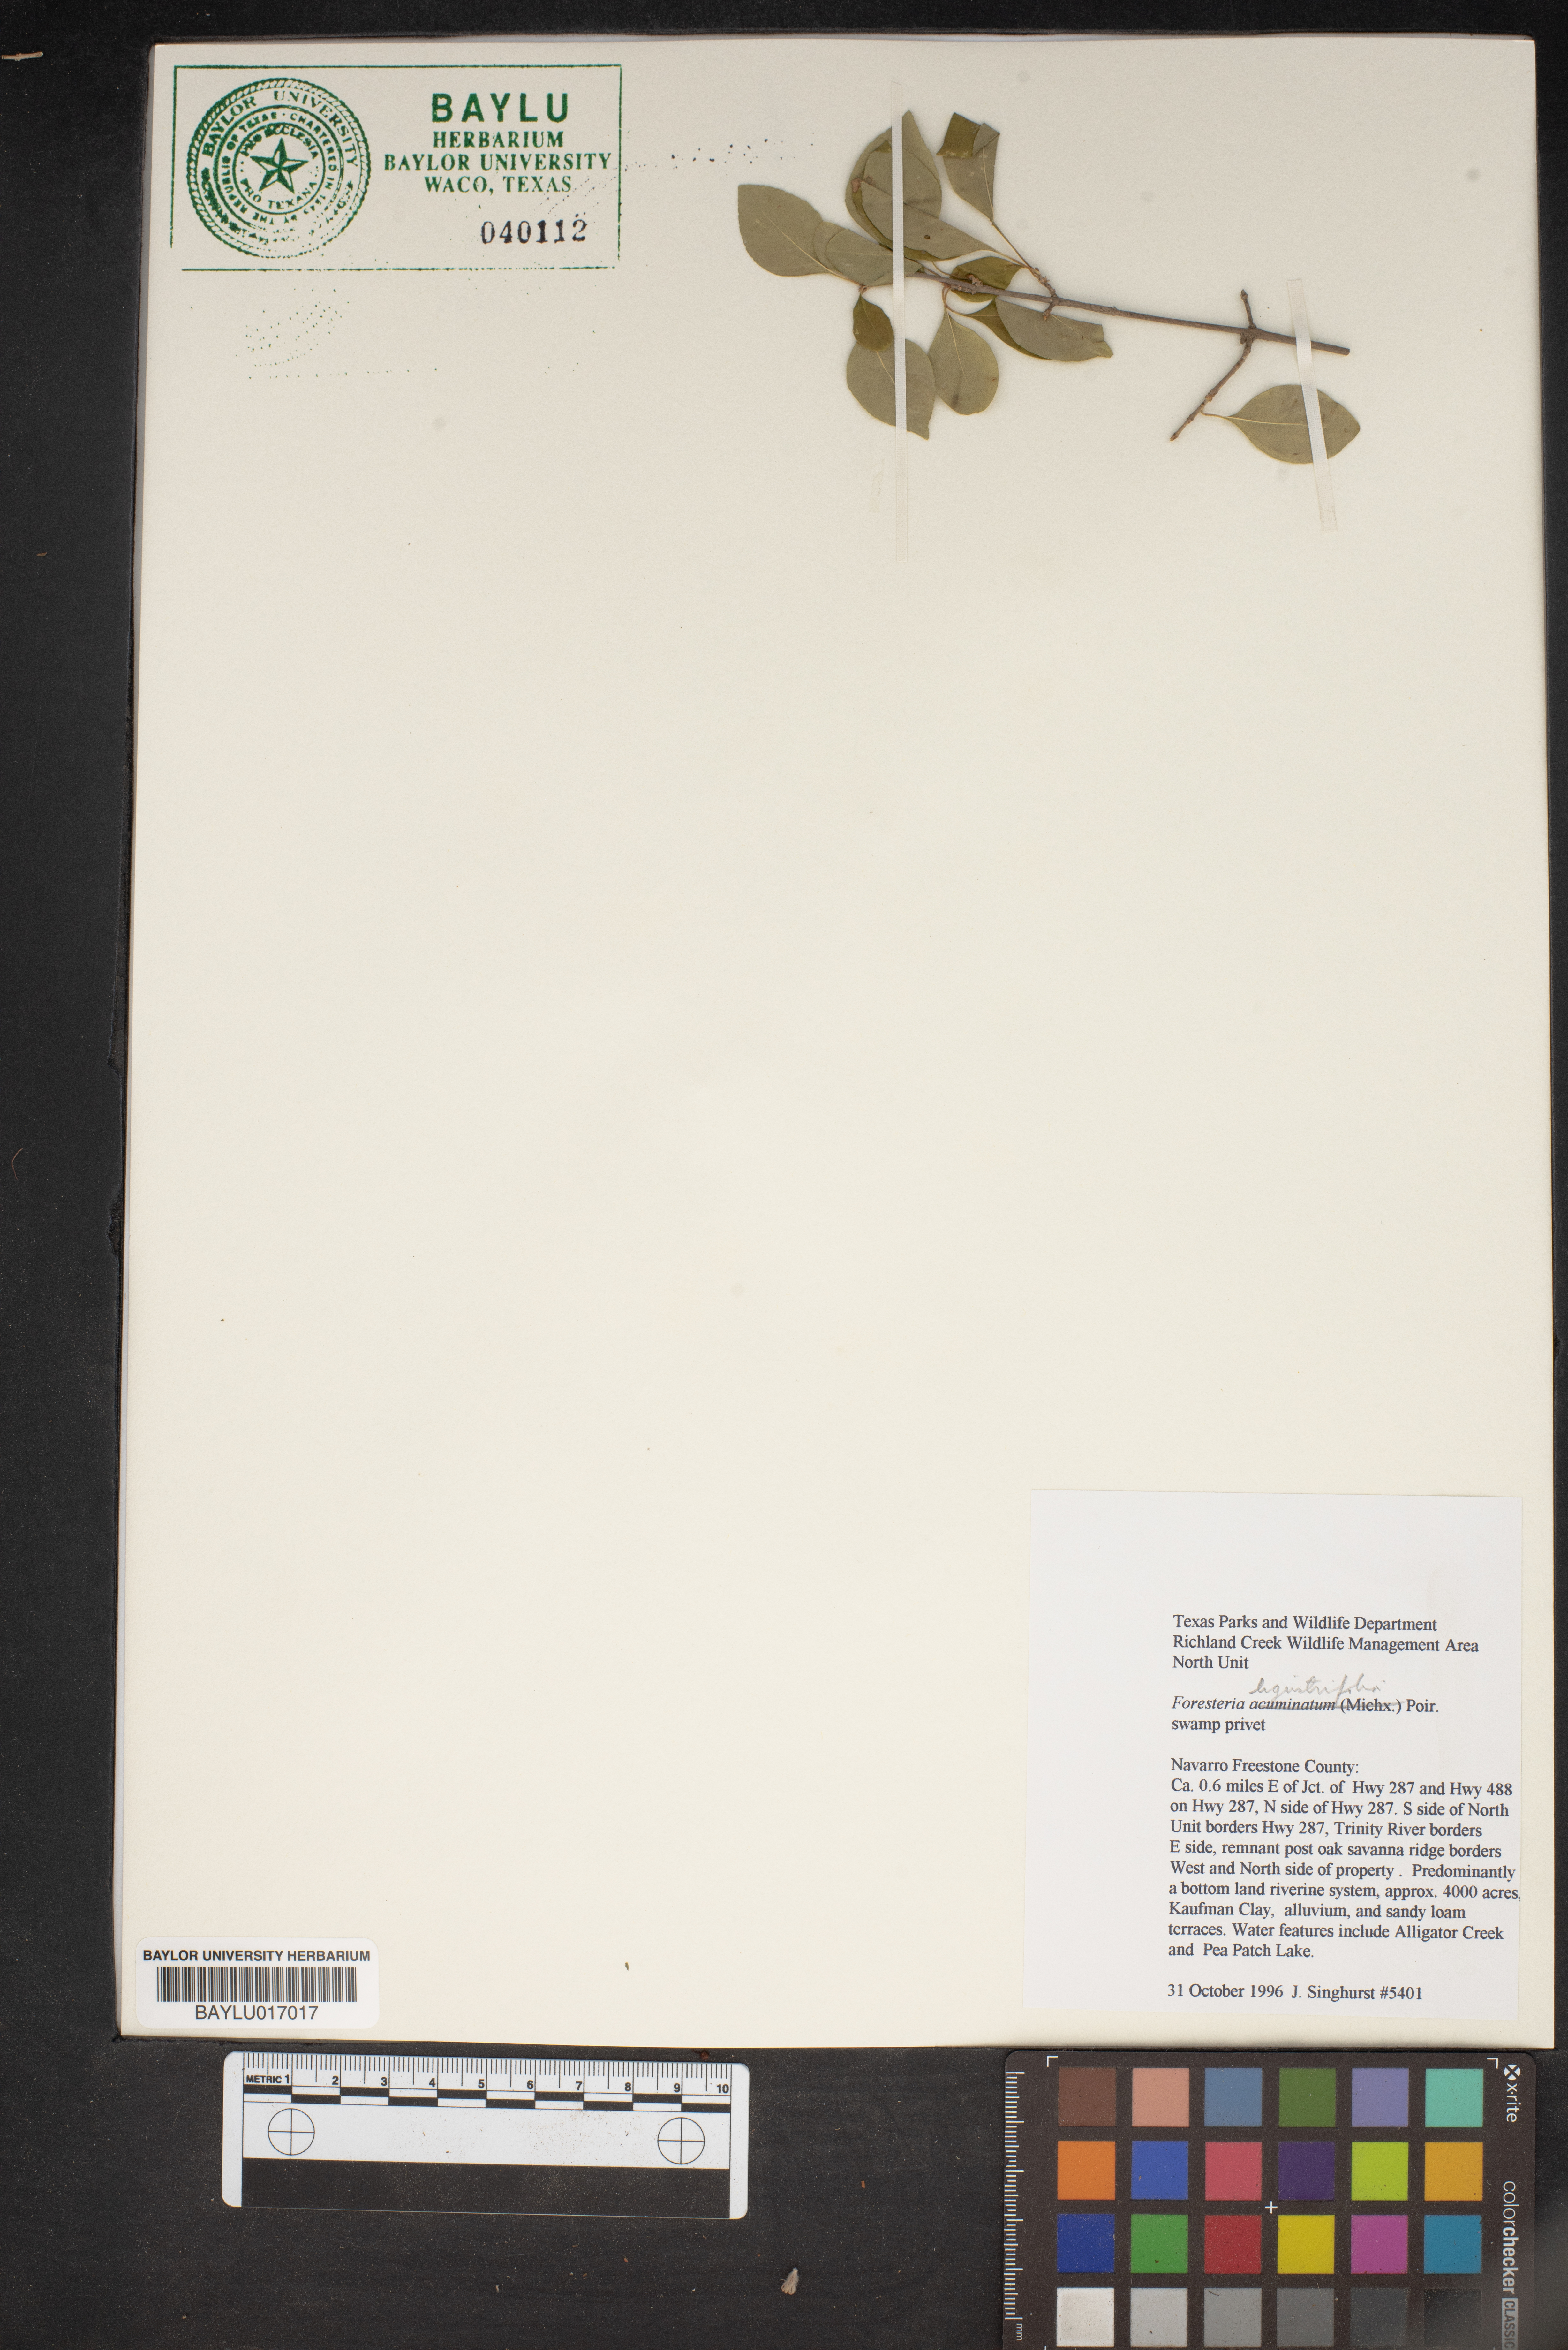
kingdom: Plantae
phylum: Tracheophyta
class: Magnoliopsida
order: Lamiales
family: Oleaceae
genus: Forestiera
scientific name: Forestiera
